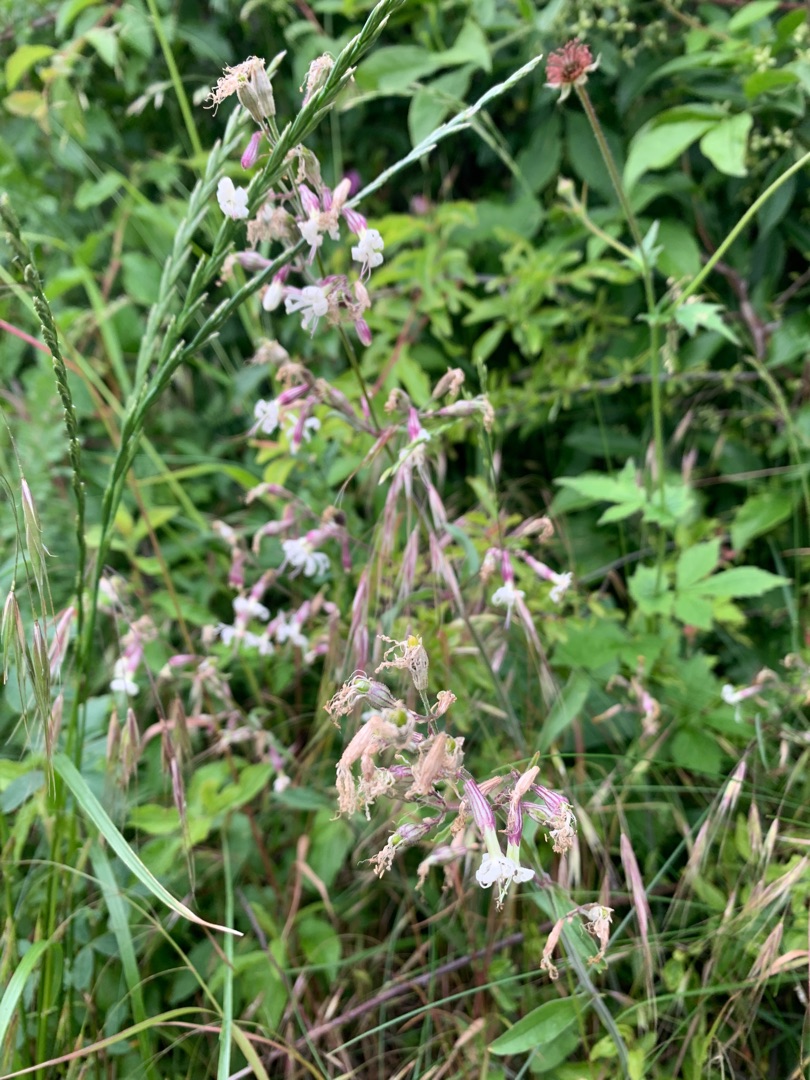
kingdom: Plantae
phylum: Tracheophyta
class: Magnoliopsida
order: Caryophyllales
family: Caryophyllaceae
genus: Silene
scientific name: Silene nutans
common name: Nikkende limurt
